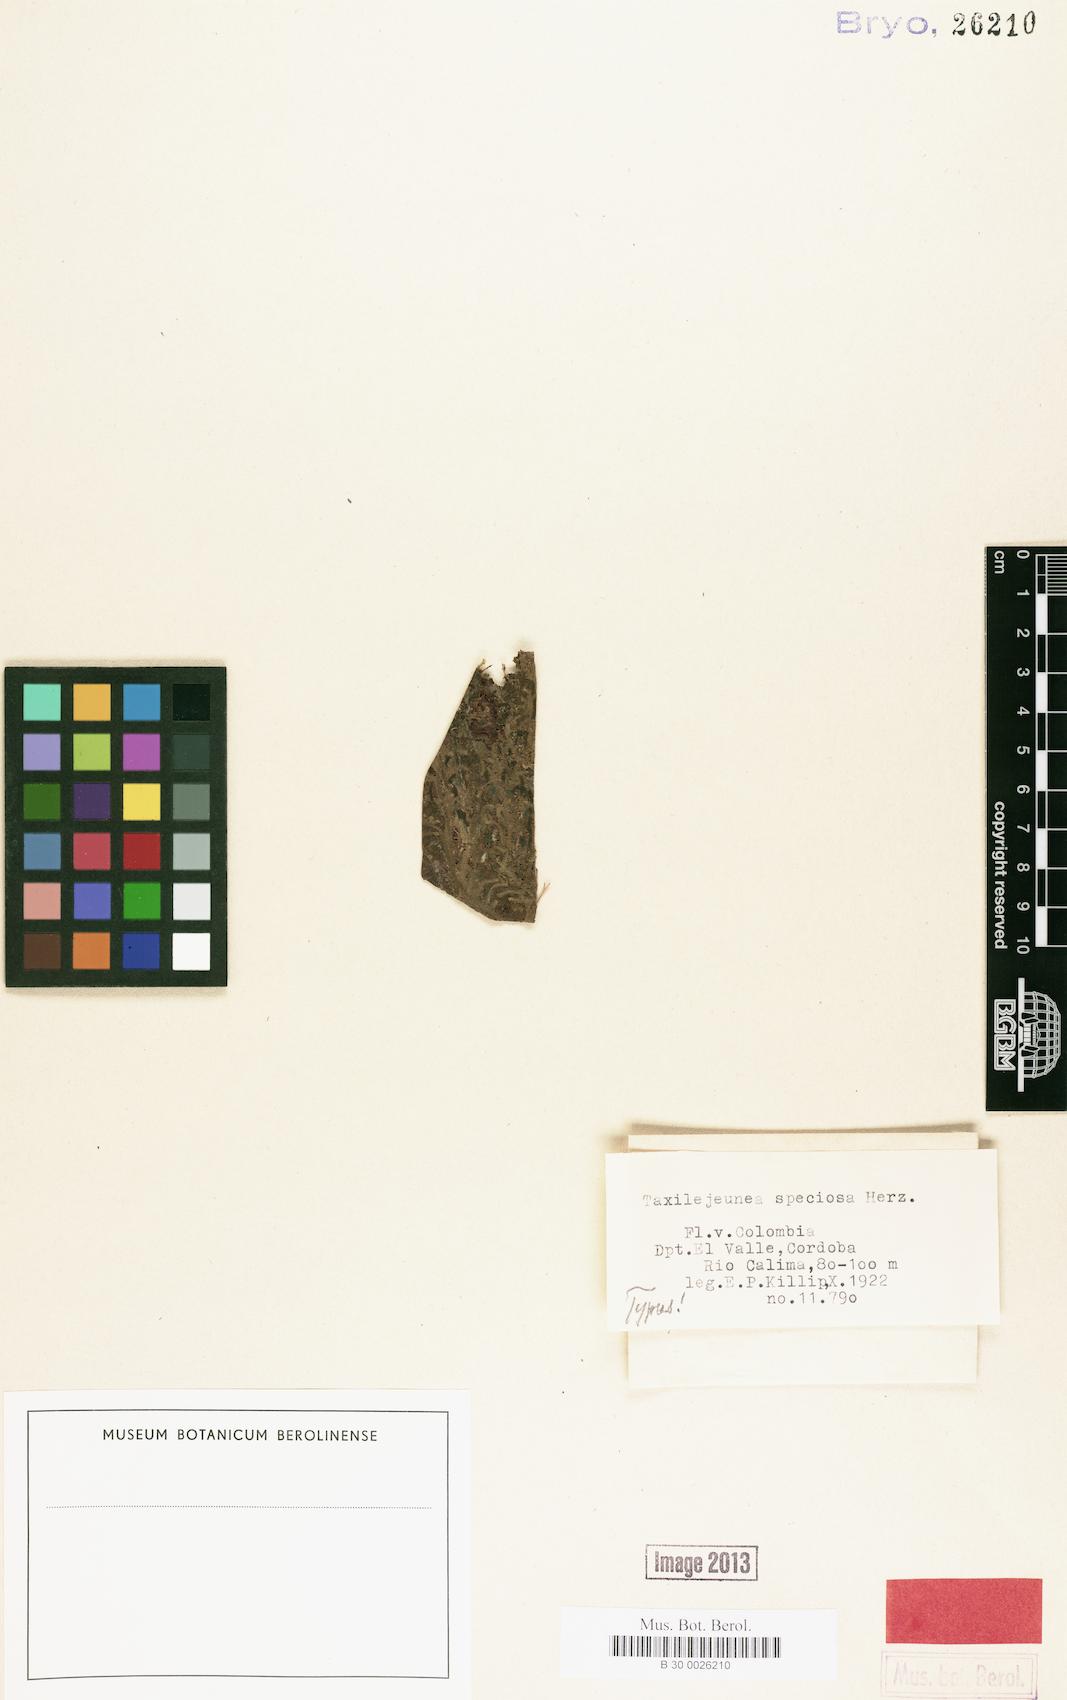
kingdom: Plantae
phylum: Marchantiophyta
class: Jungermanniopsida
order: Porellales
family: Lejeuneaceae
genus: Taxilejeunea
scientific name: Taxilejeunea speciosa
